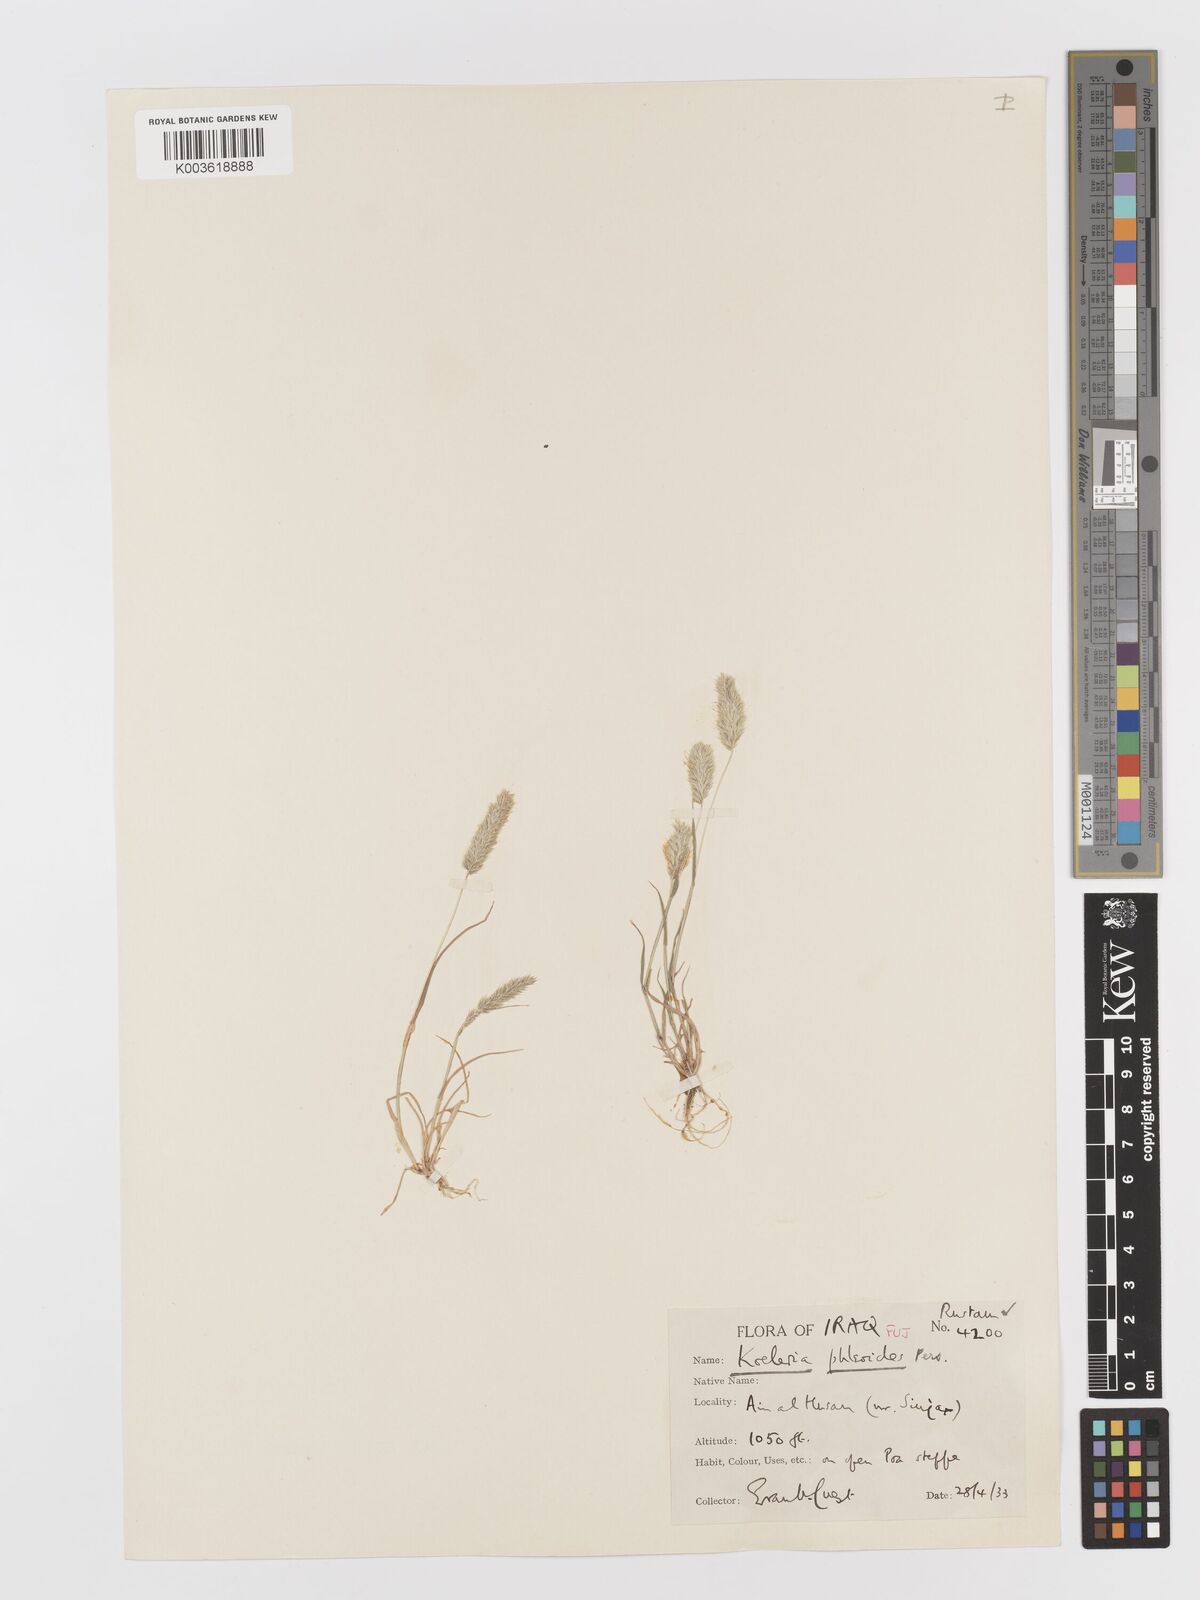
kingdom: Plantae
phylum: Tracheophyta
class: Liliopsida
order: Poales
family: Poaceae
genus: Rostraria
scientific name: Rostraria cristata
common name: Mediterranean hair-grass
